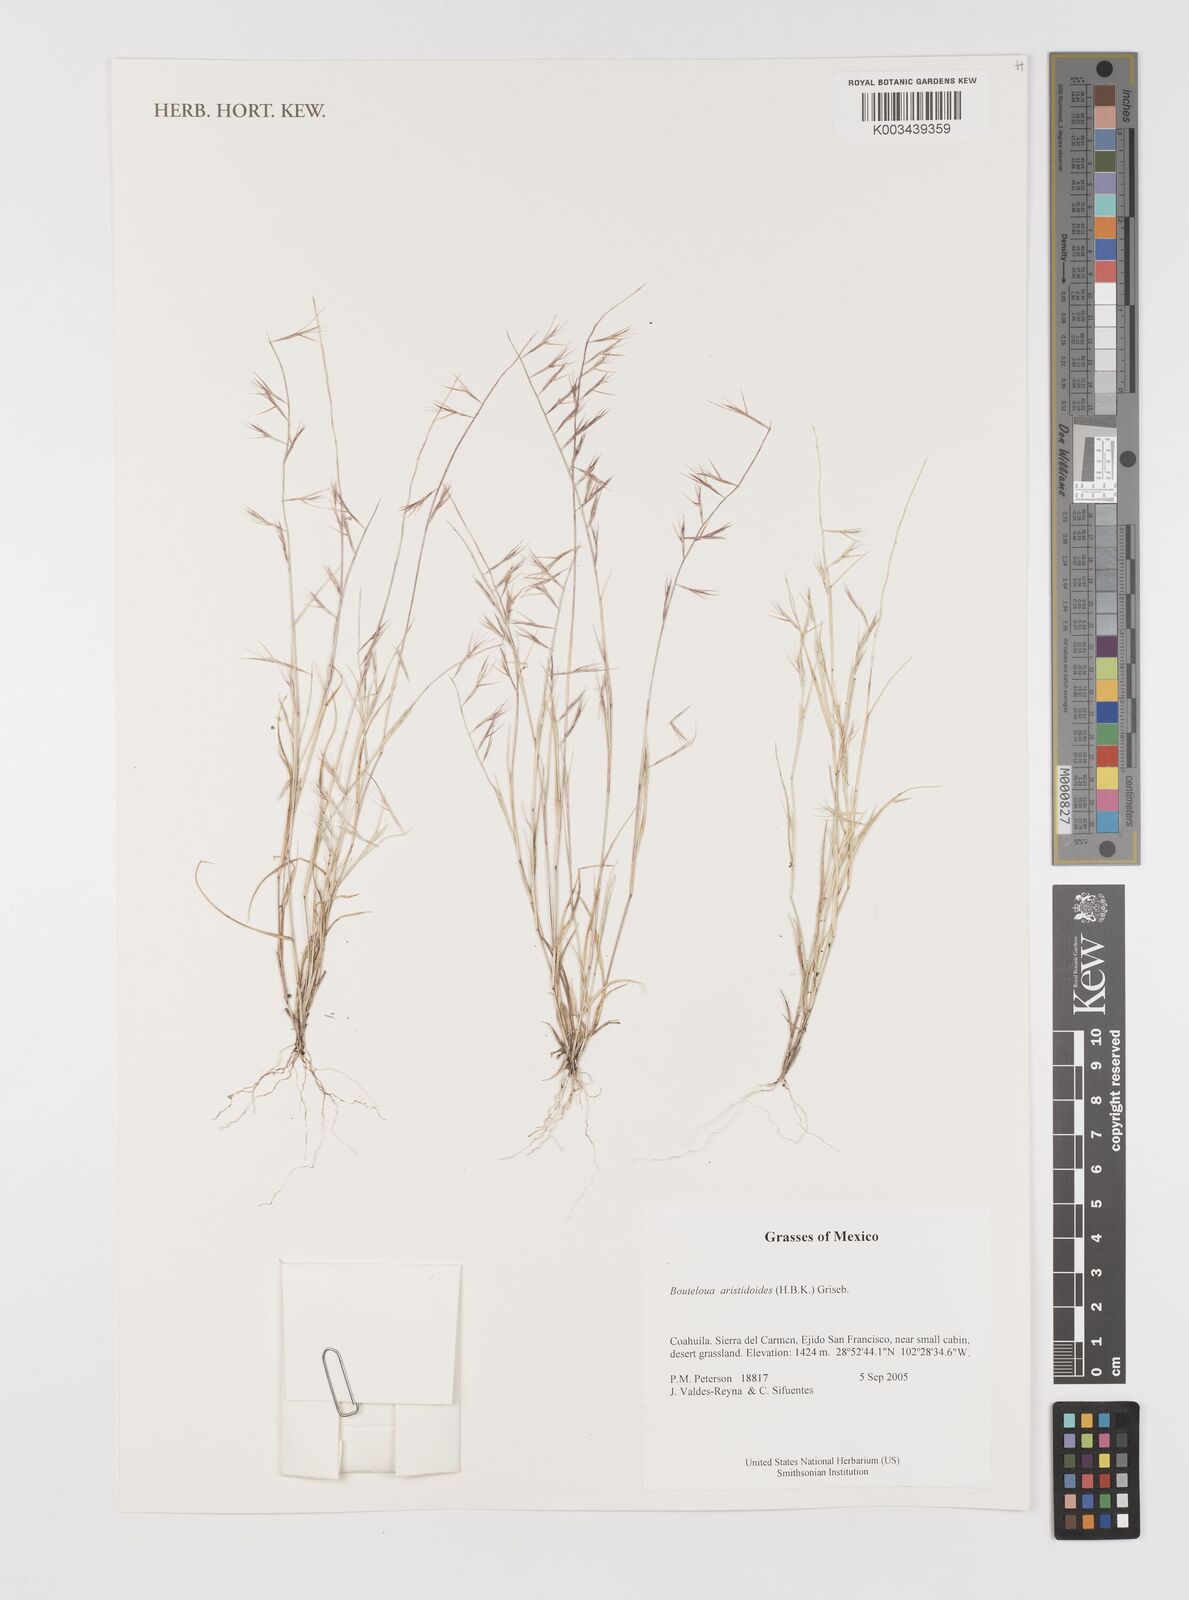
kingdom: Plantae
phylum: Tracheophyta
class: Liliopsida
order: Poales
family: Poaceae
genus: Bouteloua
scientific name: Bouteloua aristidoides
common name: Needle grama
